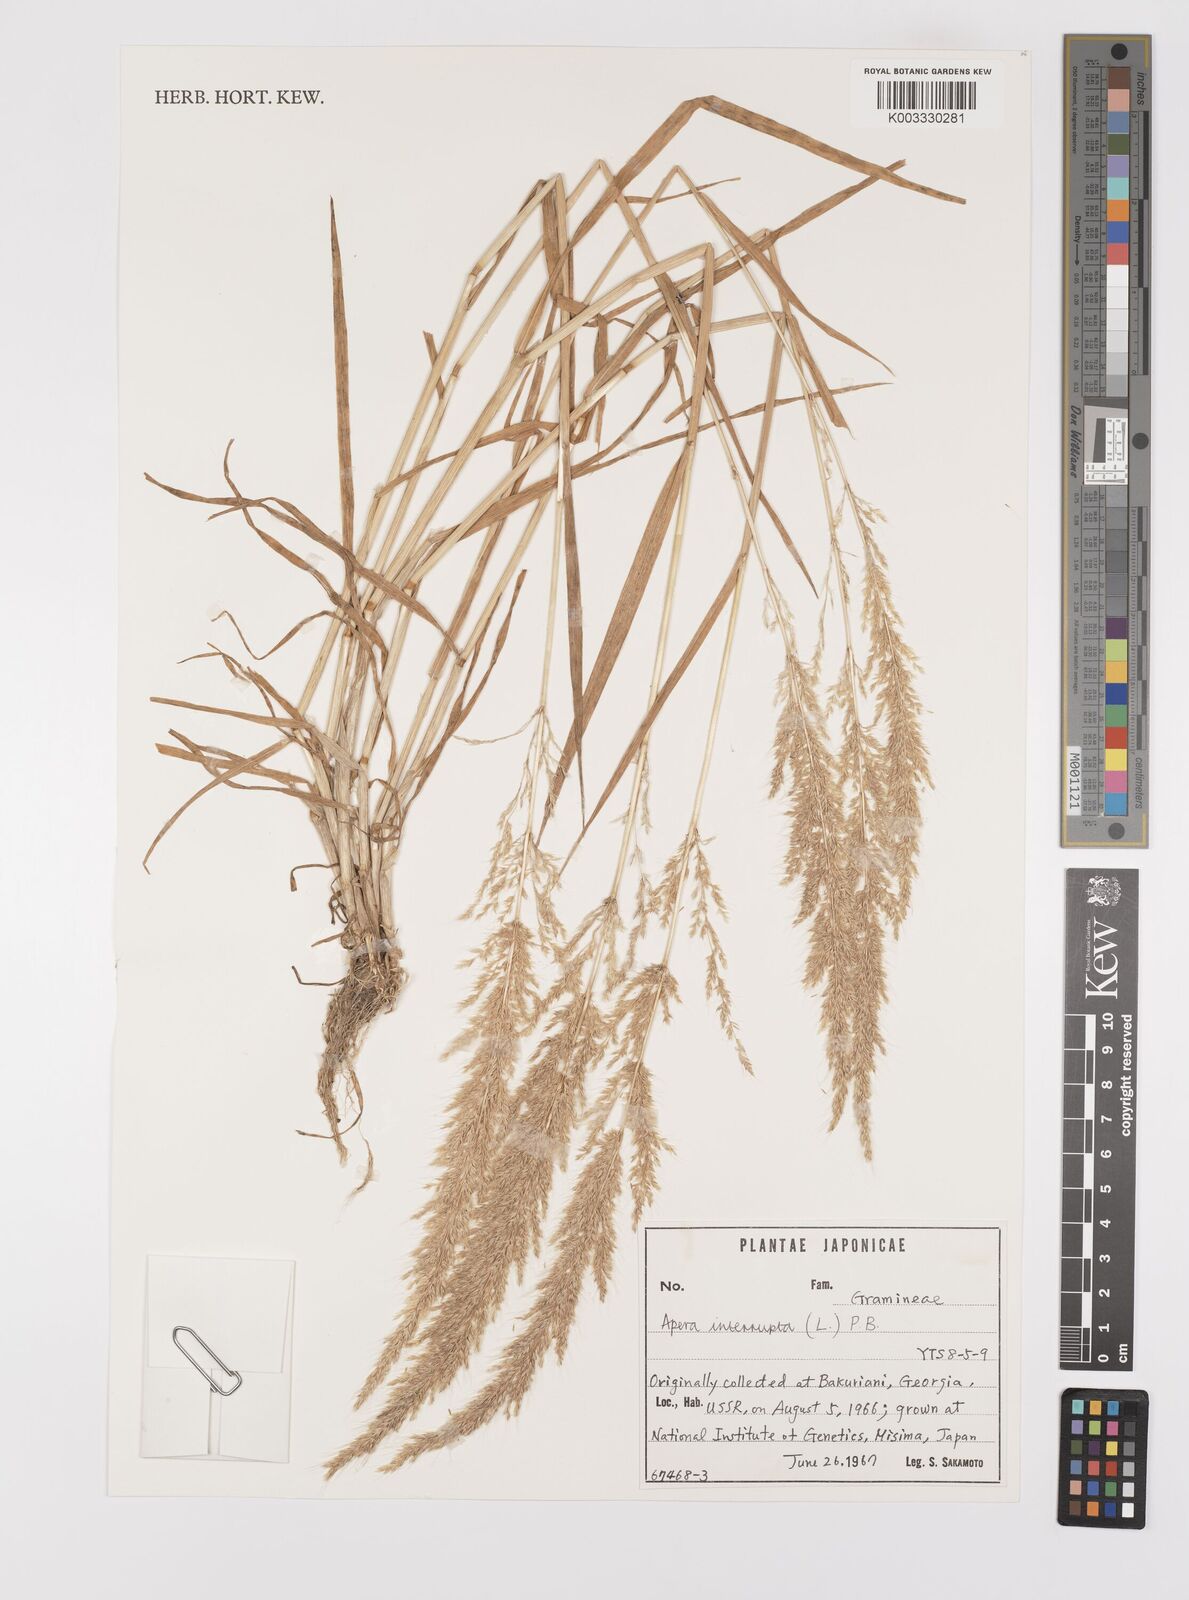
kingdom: Plantae
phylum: Tracheophyta
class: Liliopsida
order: Poales
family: Poaceae
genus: Apera
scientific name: Apera interrupta
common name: Dense silky-bent
